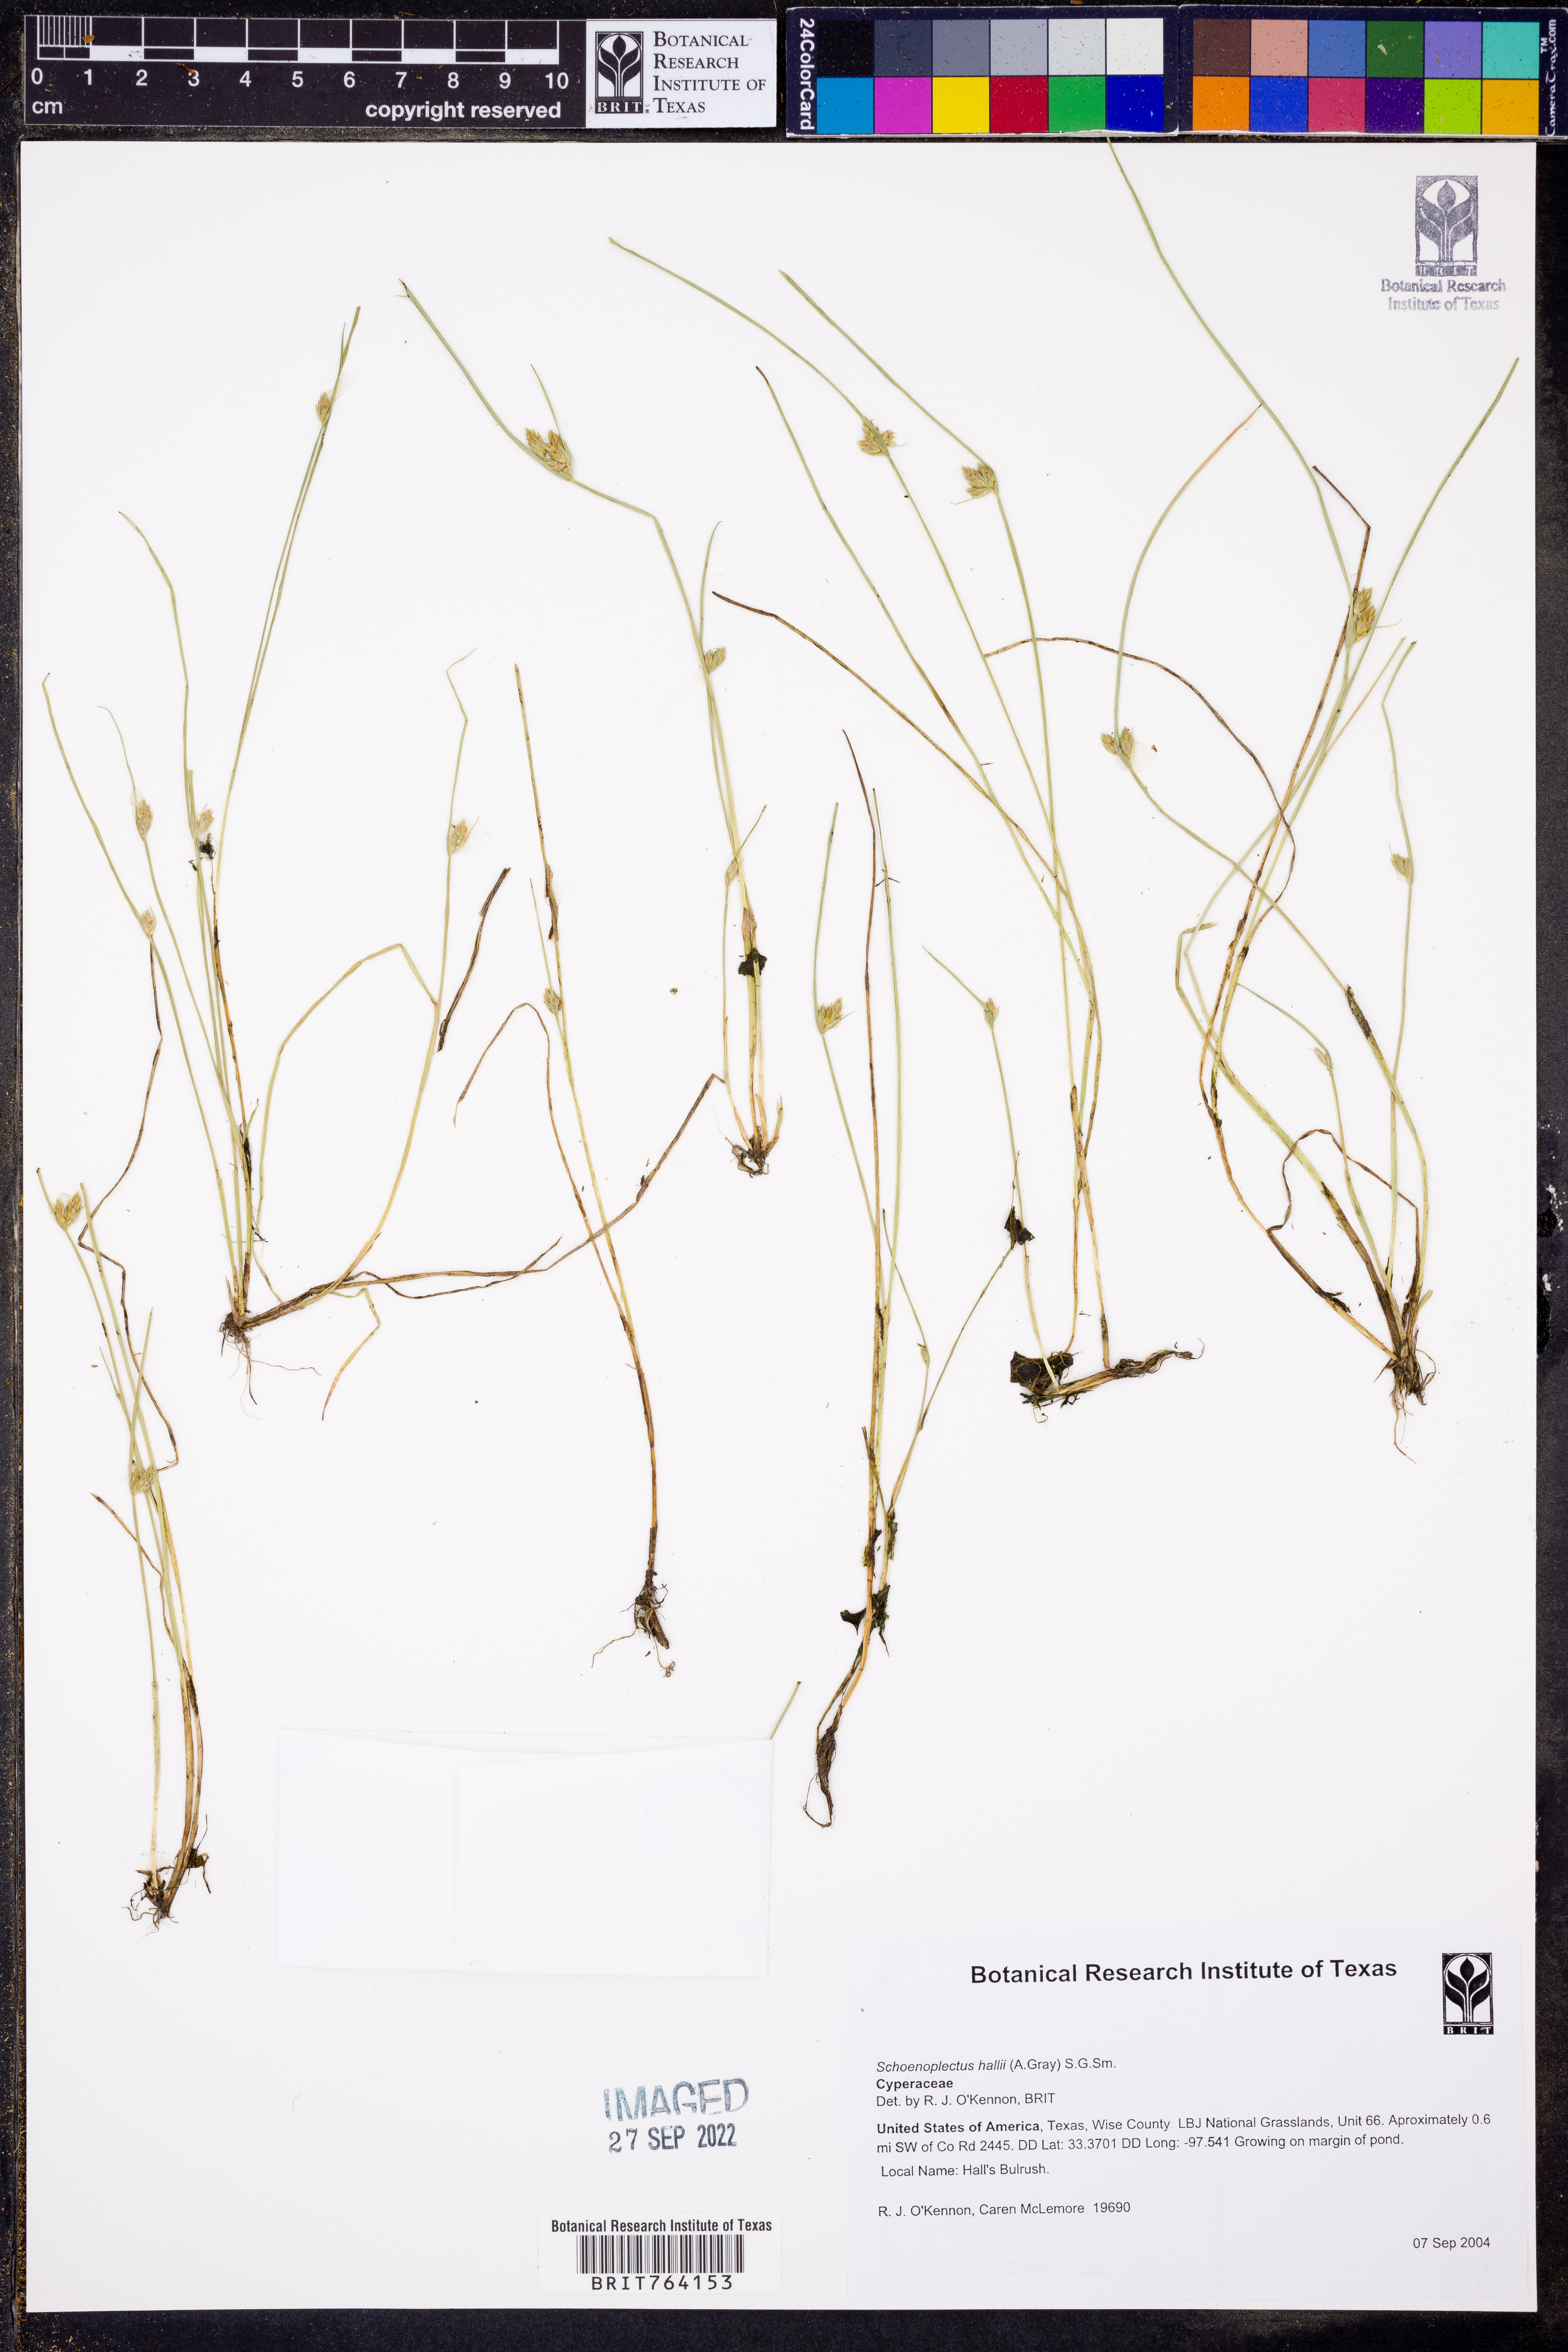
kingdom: Plantae
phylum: Tracheophyta
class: Liliopsida
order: Poales
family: Cyperaceae
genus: Schoenoplectiella
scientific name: Schoenoplectiella hallii
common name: Hall's bullrush
